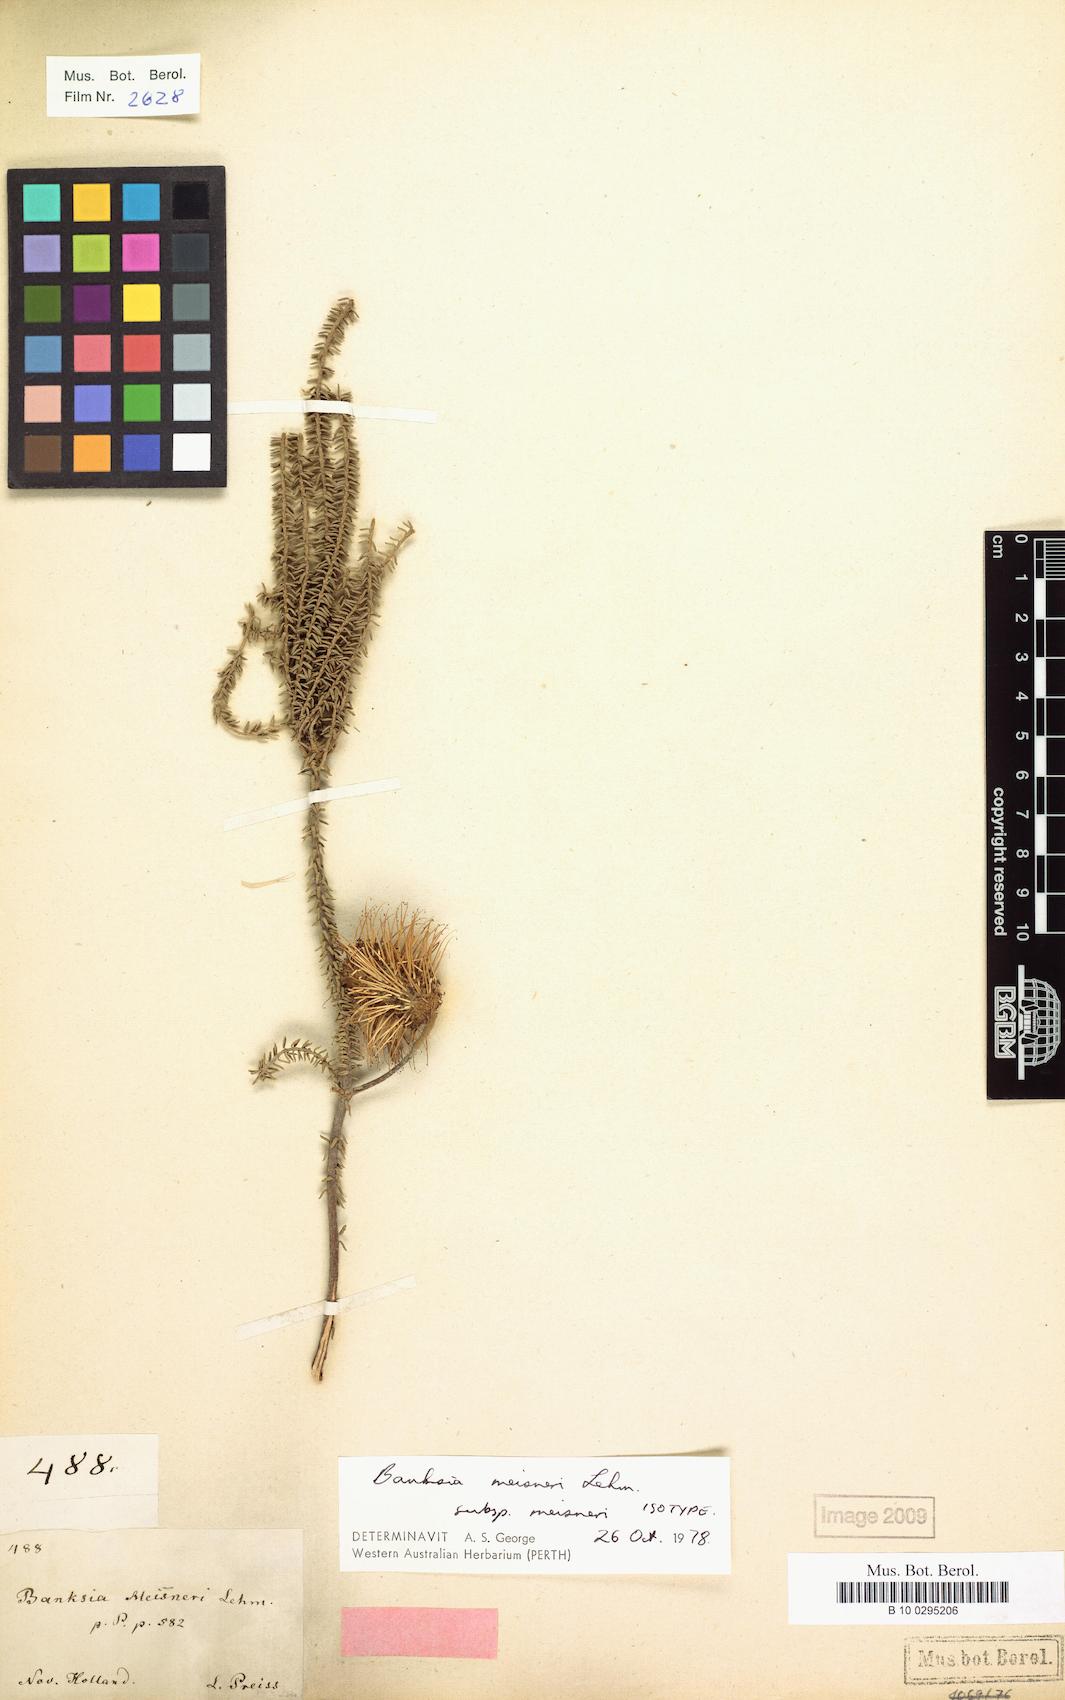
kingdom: Plantae
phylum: Tracheophyta
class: Magnoliopsida
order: Proteales
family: Proteaceae
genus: Banksia
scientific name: Banksia meisneri
